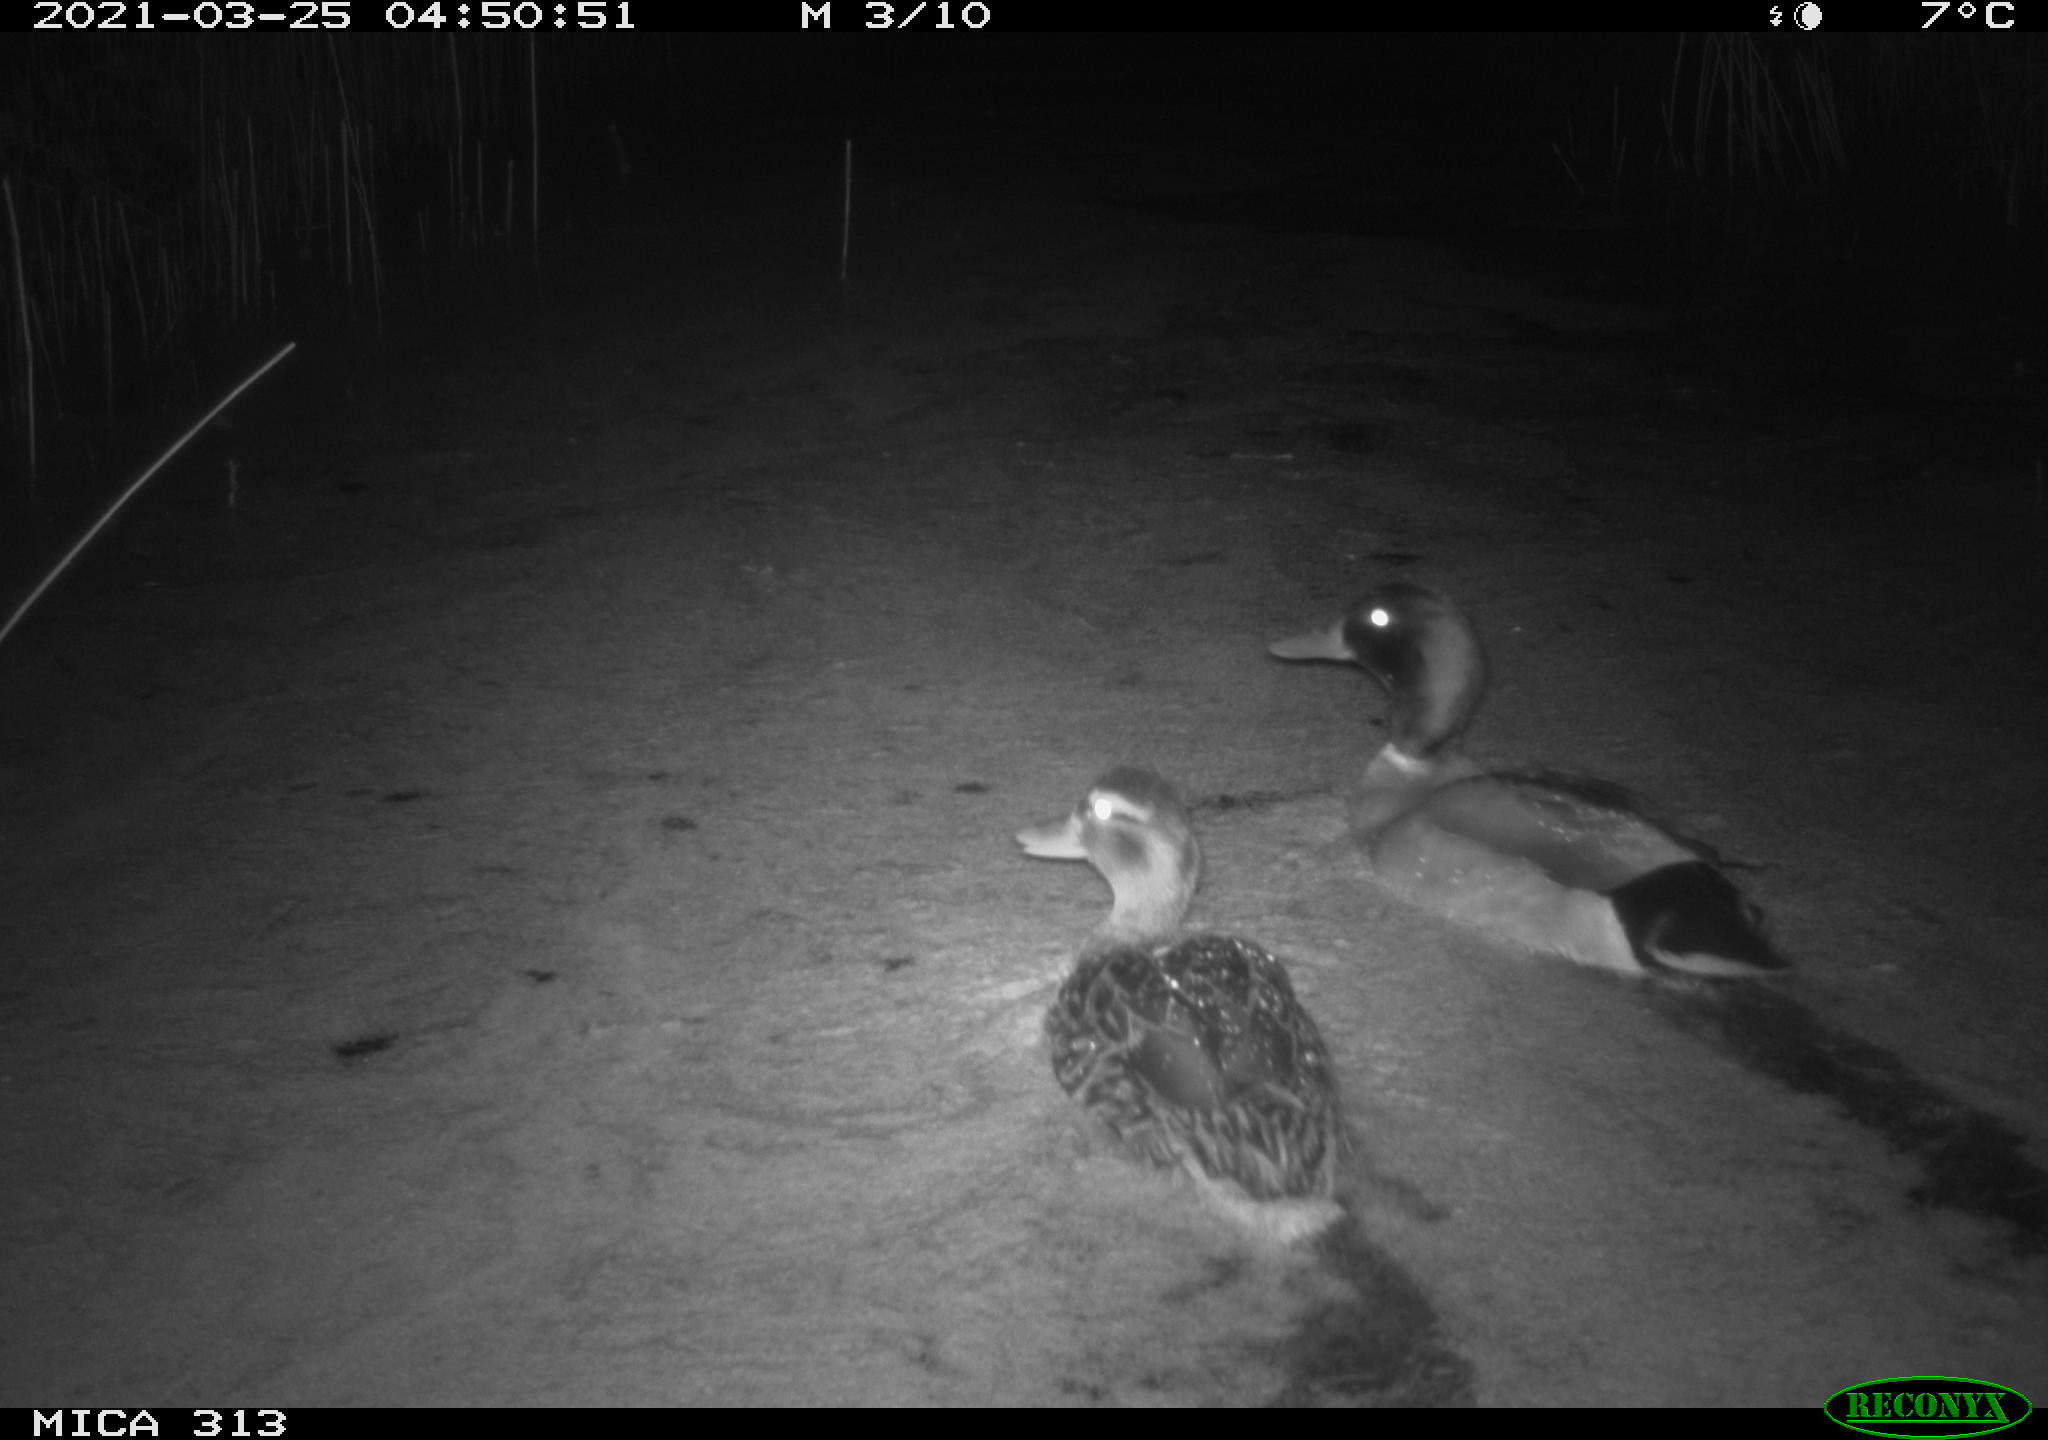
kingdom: Animalia
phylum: Chordata
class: Aves
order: Anseriformes
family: Anatidae
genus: Anas
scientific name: Anas platyrhynchos
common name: Mallard
